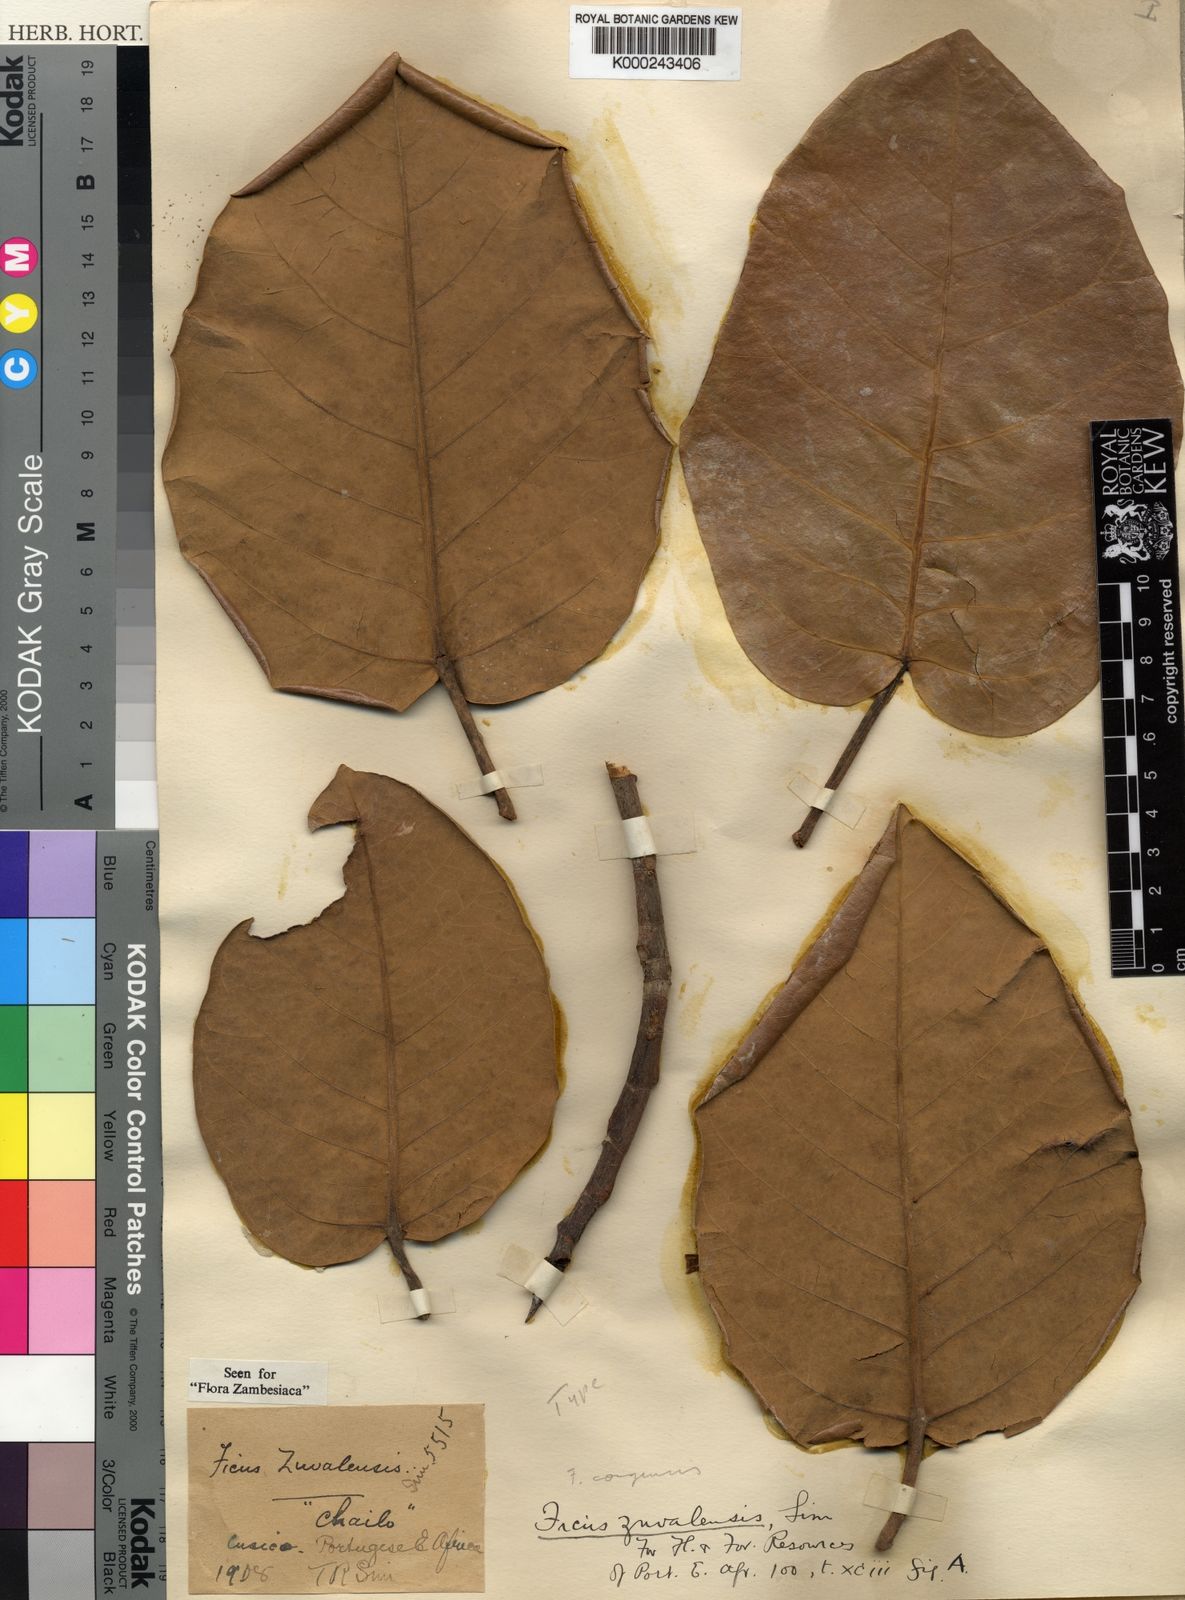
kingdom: Plantae
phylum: Tracheophyta
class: Magnoliopsida
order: Rosales
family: Moraceae
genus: Ficus
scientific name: Ficus
